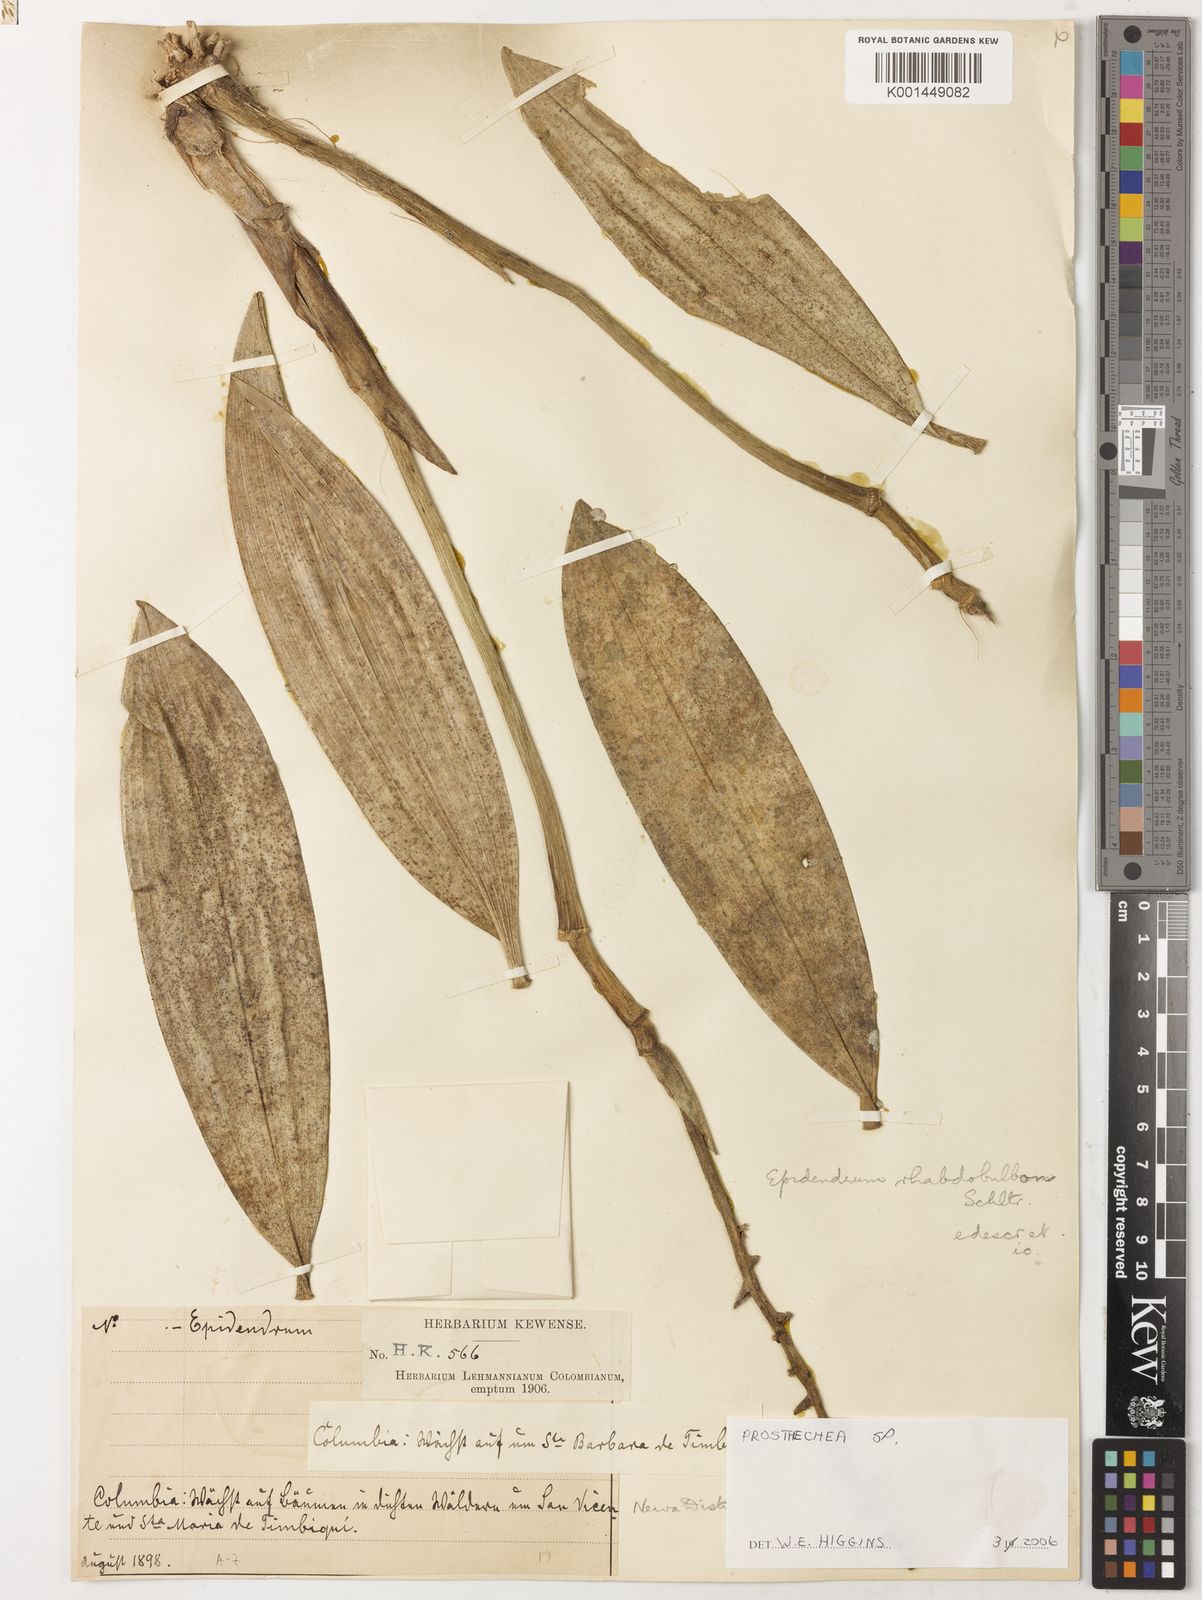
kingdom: Plantae
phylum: Tracheophyta
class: Liliopsida
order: Asparagales
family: Orchidaceae
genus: Prosthechea
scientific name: Prosthechea crassilabia
